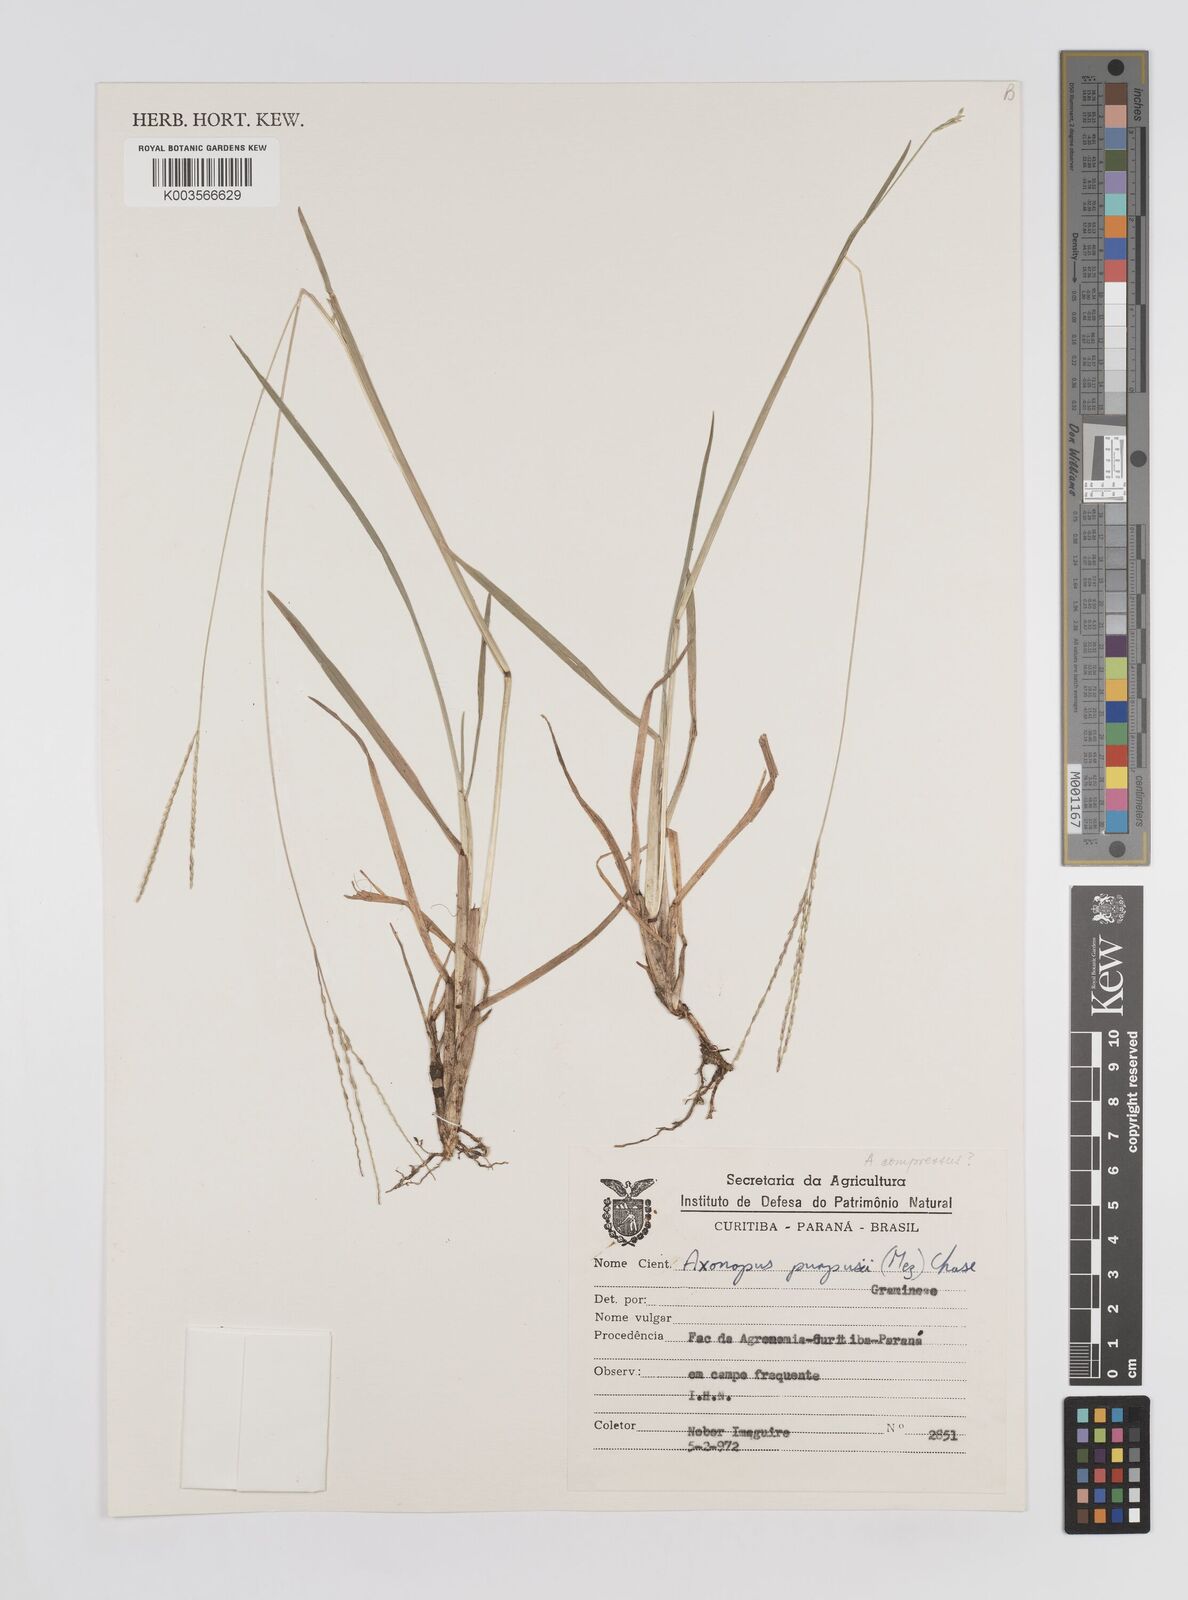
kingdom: Plantae
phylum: Tracheophyta
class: Liliopsida
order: Poales
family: Poaceae
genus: Axonopus
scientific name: Axonopus compressus
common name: American carpet grass
